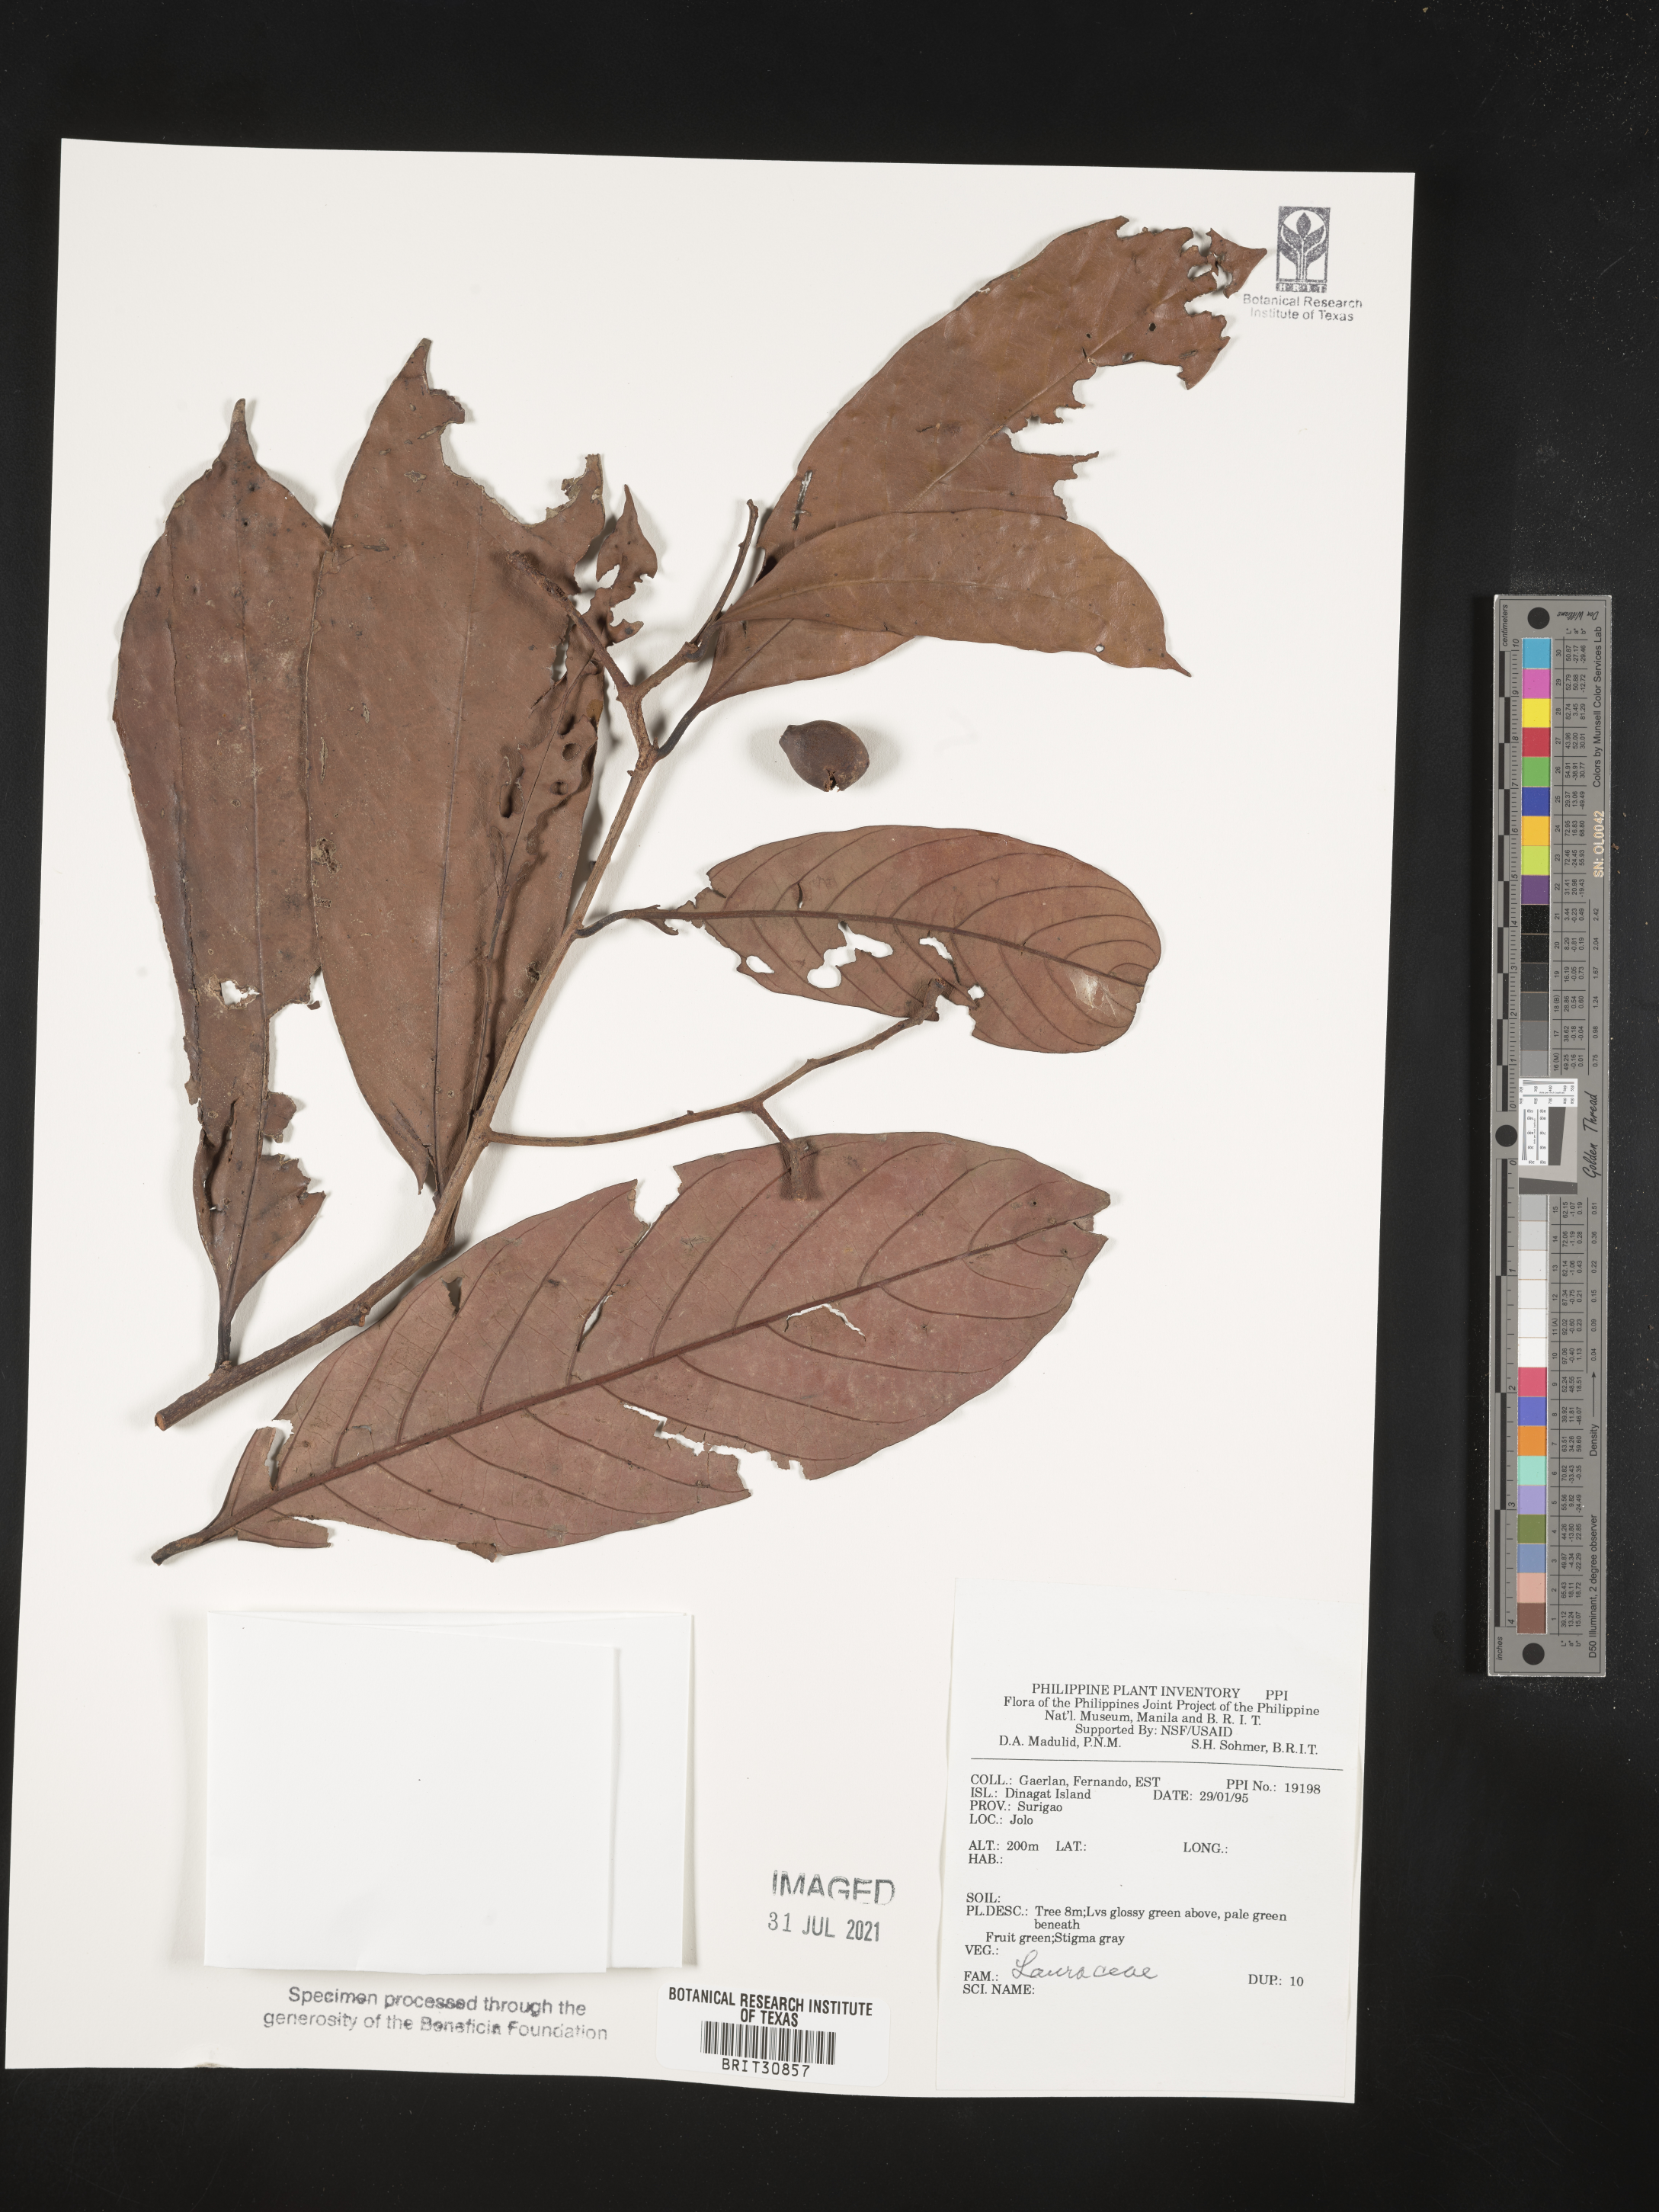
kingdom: Plantae
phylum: Tracheophyta
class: Magnoliopsida
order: Laurales
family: Lauraceae
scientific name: Lauraceae
